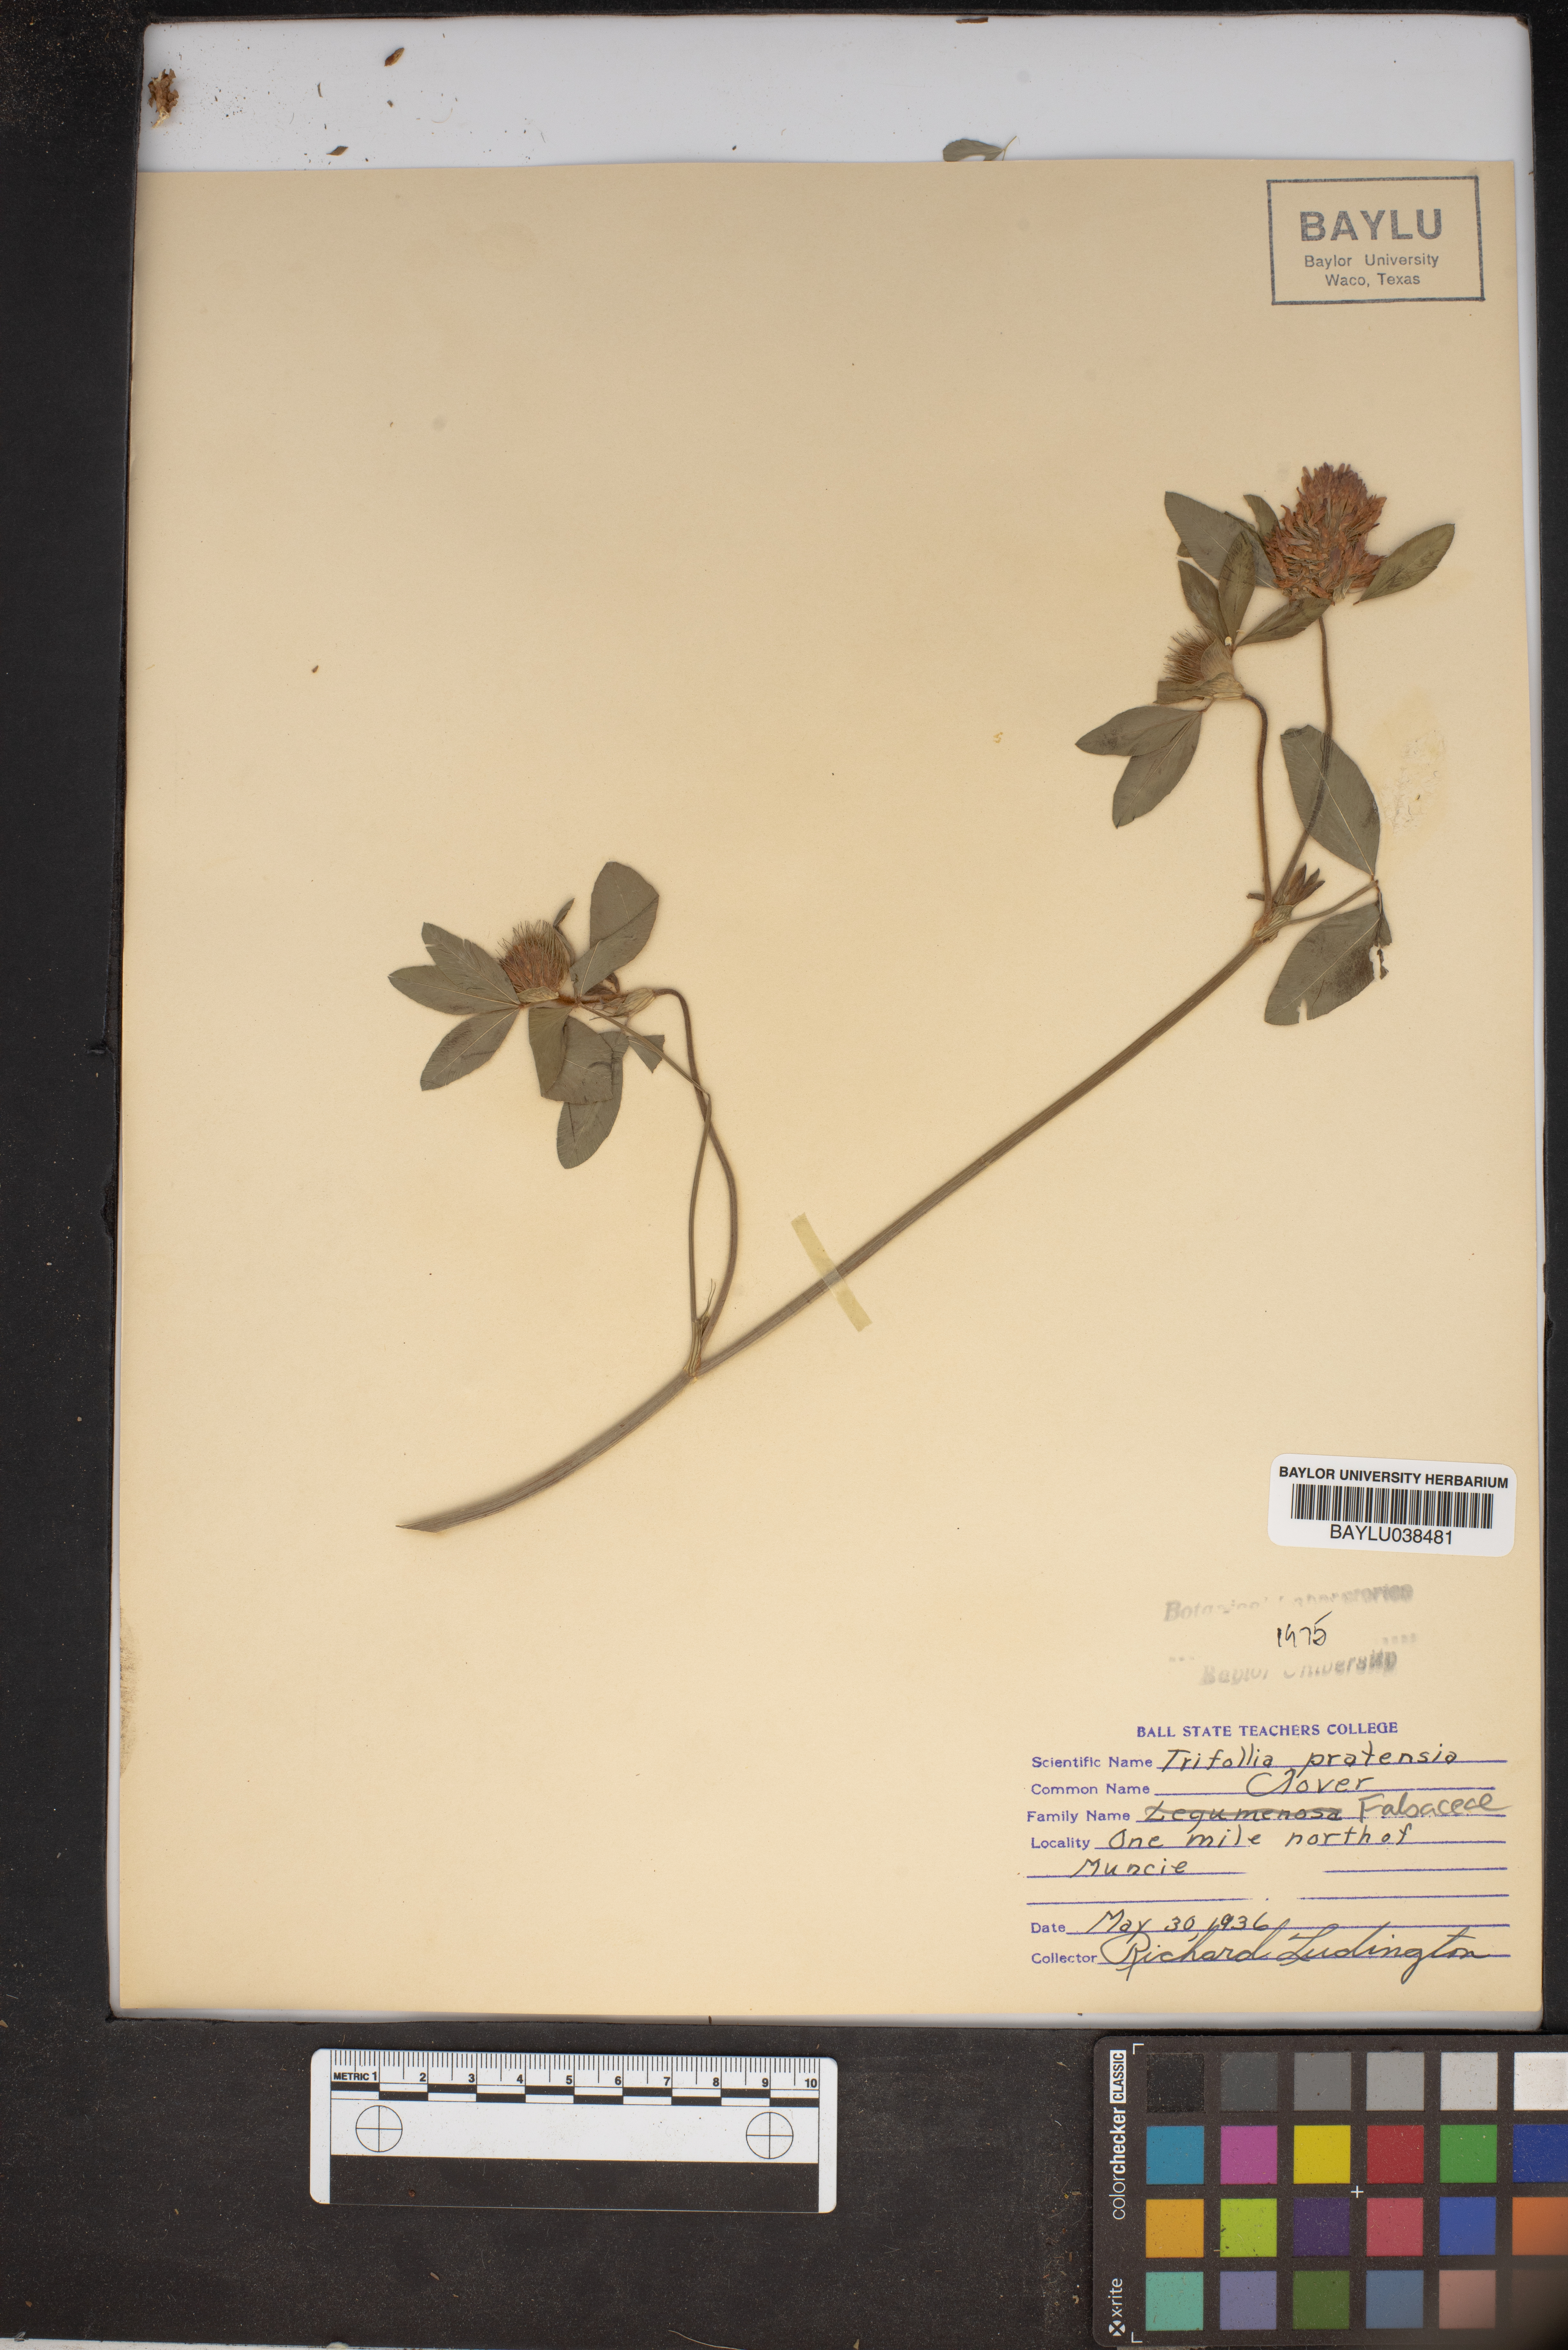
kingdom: Plantae
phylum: Tracheophyta
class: Magnoliopsida
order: Fabales
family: Fabaceae
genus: Trifolium
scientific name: Trifolium pratense
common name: Red clover
